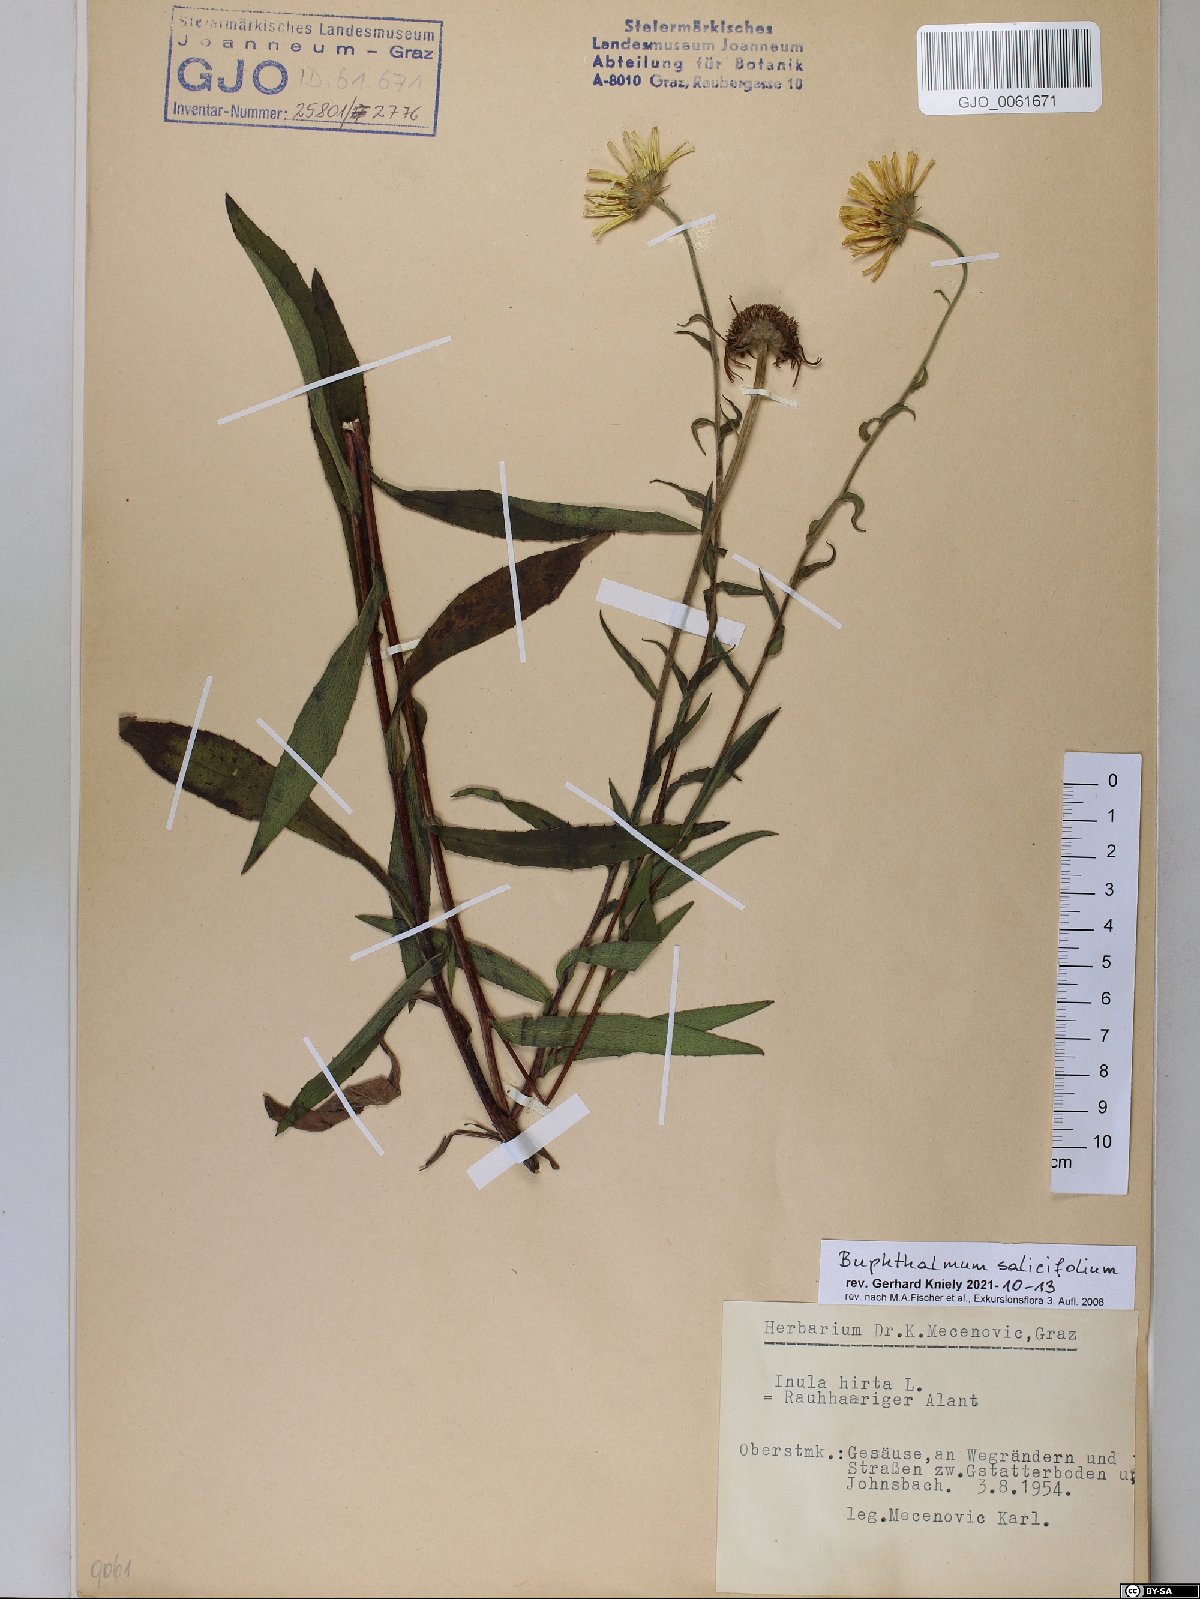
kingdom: Plantae
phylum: Tracheophyta
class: Magnoliopsida
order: Asterales
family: Asteraceae
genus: Buphthalmum
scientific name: Buphthalmum salicifolium
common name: Willow-leaved yellow-oxeye
